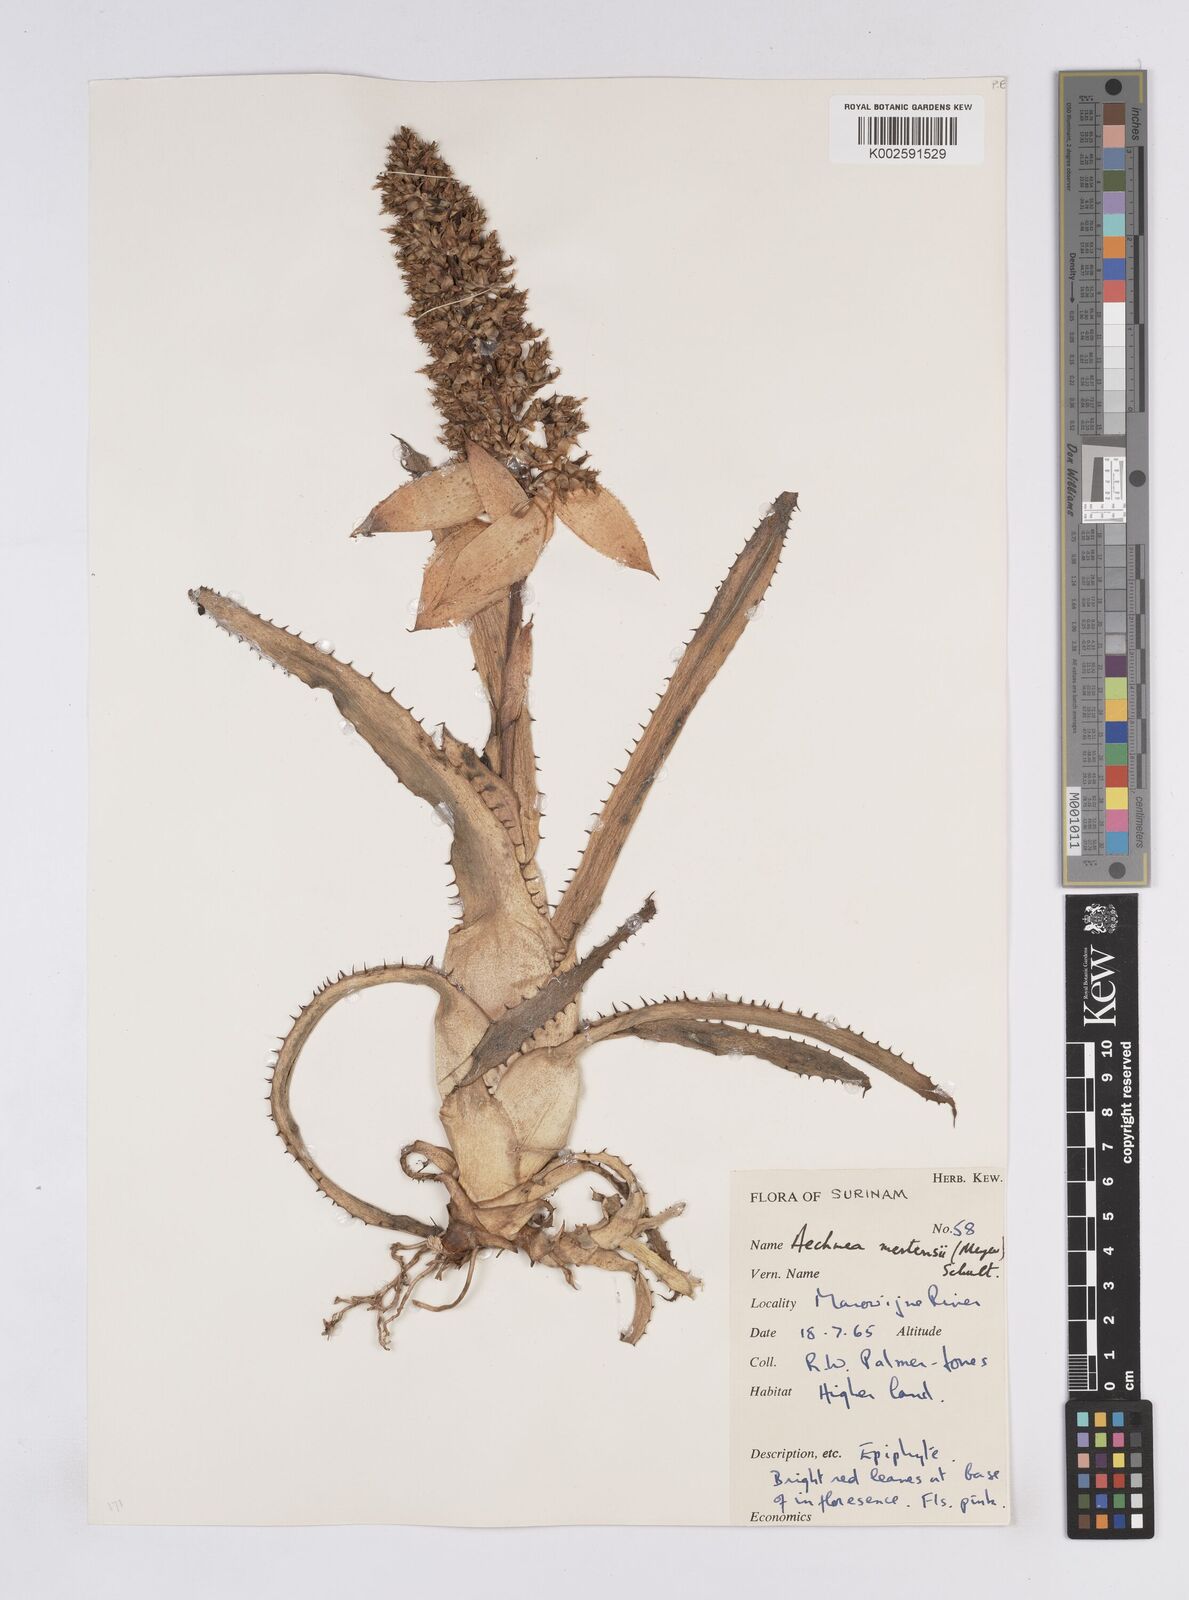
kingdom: Plantae
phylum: Tracheophyta
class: Liliopsida
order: Poales
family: Bromeliaceae
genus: Aechmea
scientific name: Aechmea mertensii
